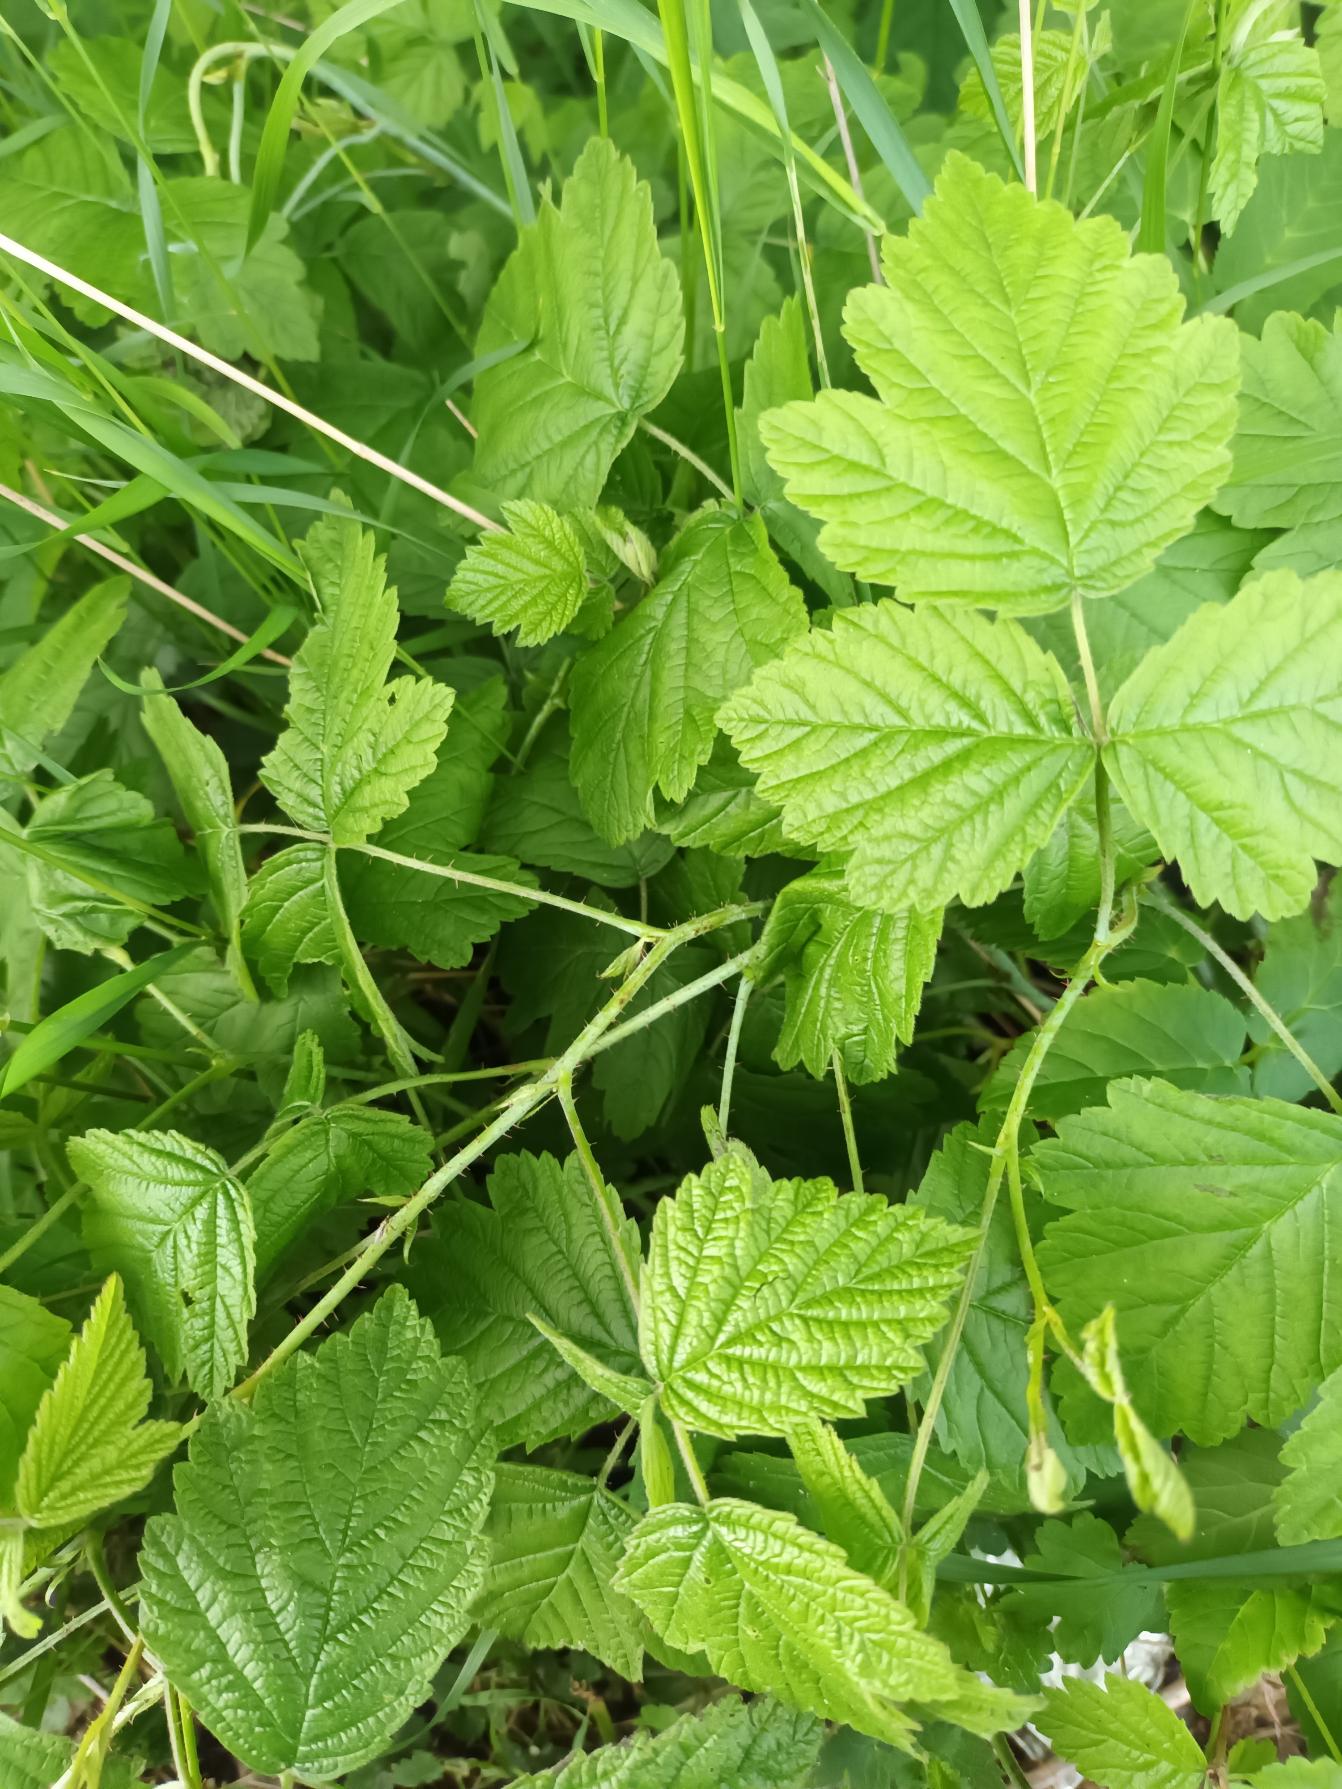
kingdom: Plantae
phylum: Tracheophyta
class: Magnoliopsida
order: Rosales
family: Rosaceae
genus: Rubus
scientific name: Rubus caesius
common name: Korbær
